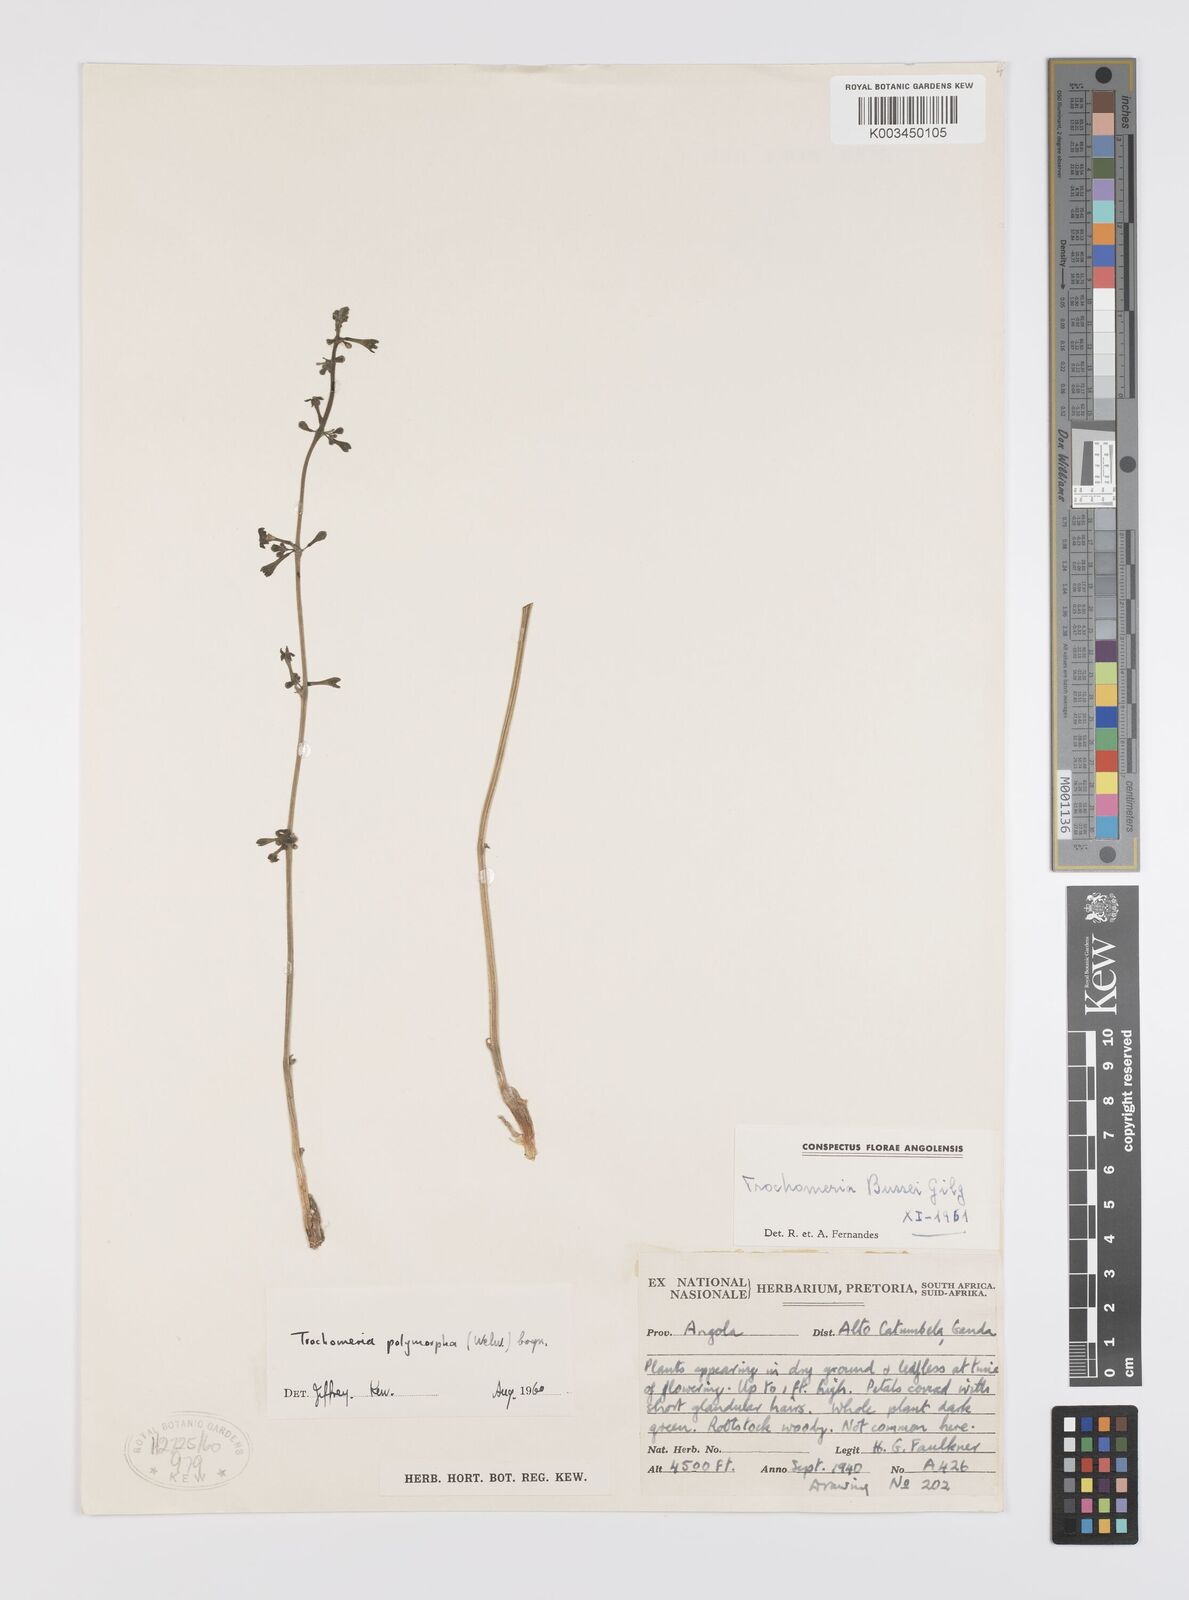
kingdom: Plantae
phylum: Tracheophyta
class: Magnoliopsida
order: Cucurbitales
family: Cucurbitaceae
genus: Trochomeria
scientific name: Trochomeria polymorpha
